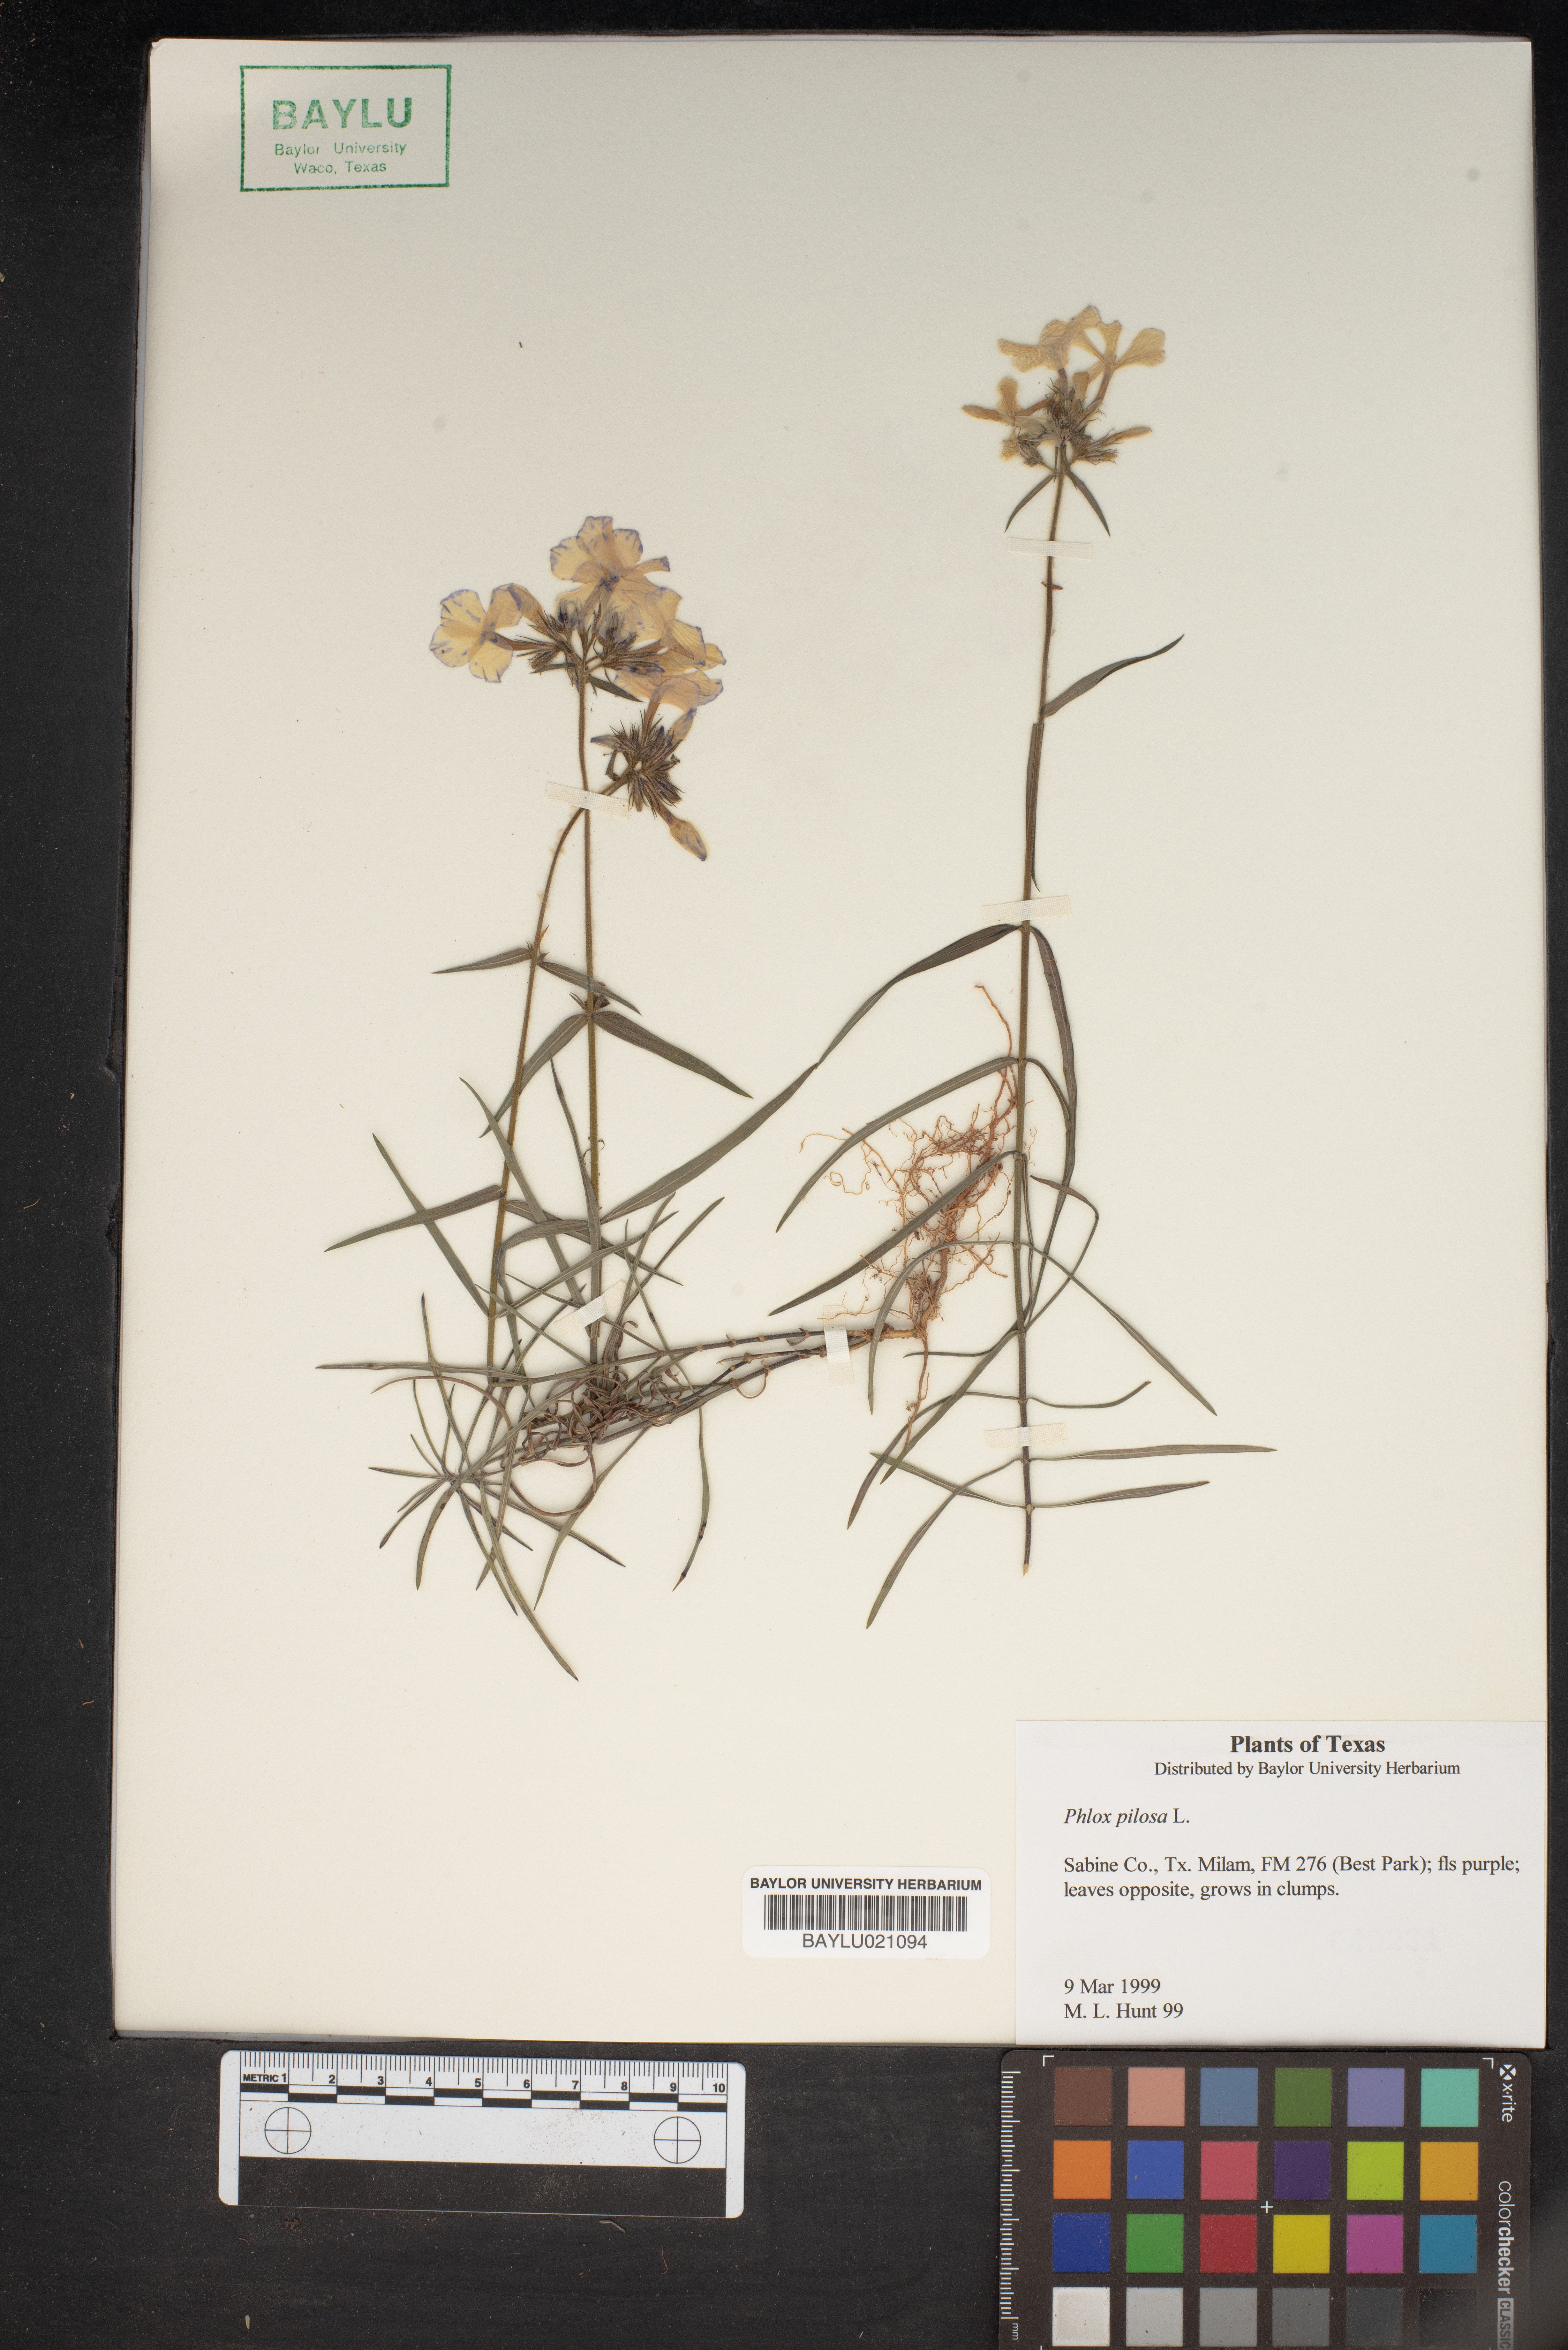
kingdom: Plantae
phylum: Tracheophyta
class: Magnoliopsida
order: Ericales
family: Polemoniaceae
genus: Phlox
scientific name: Phlox pilosa
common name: Prairie phlox
